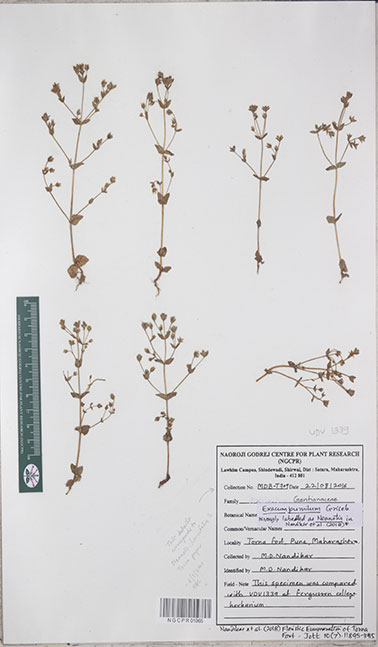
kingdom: Plantae
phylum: Tracheophyta
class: Magnoliopsida
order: Gentianales
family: Gentianaceae
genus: Exacum
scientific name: Exacum pumilum
